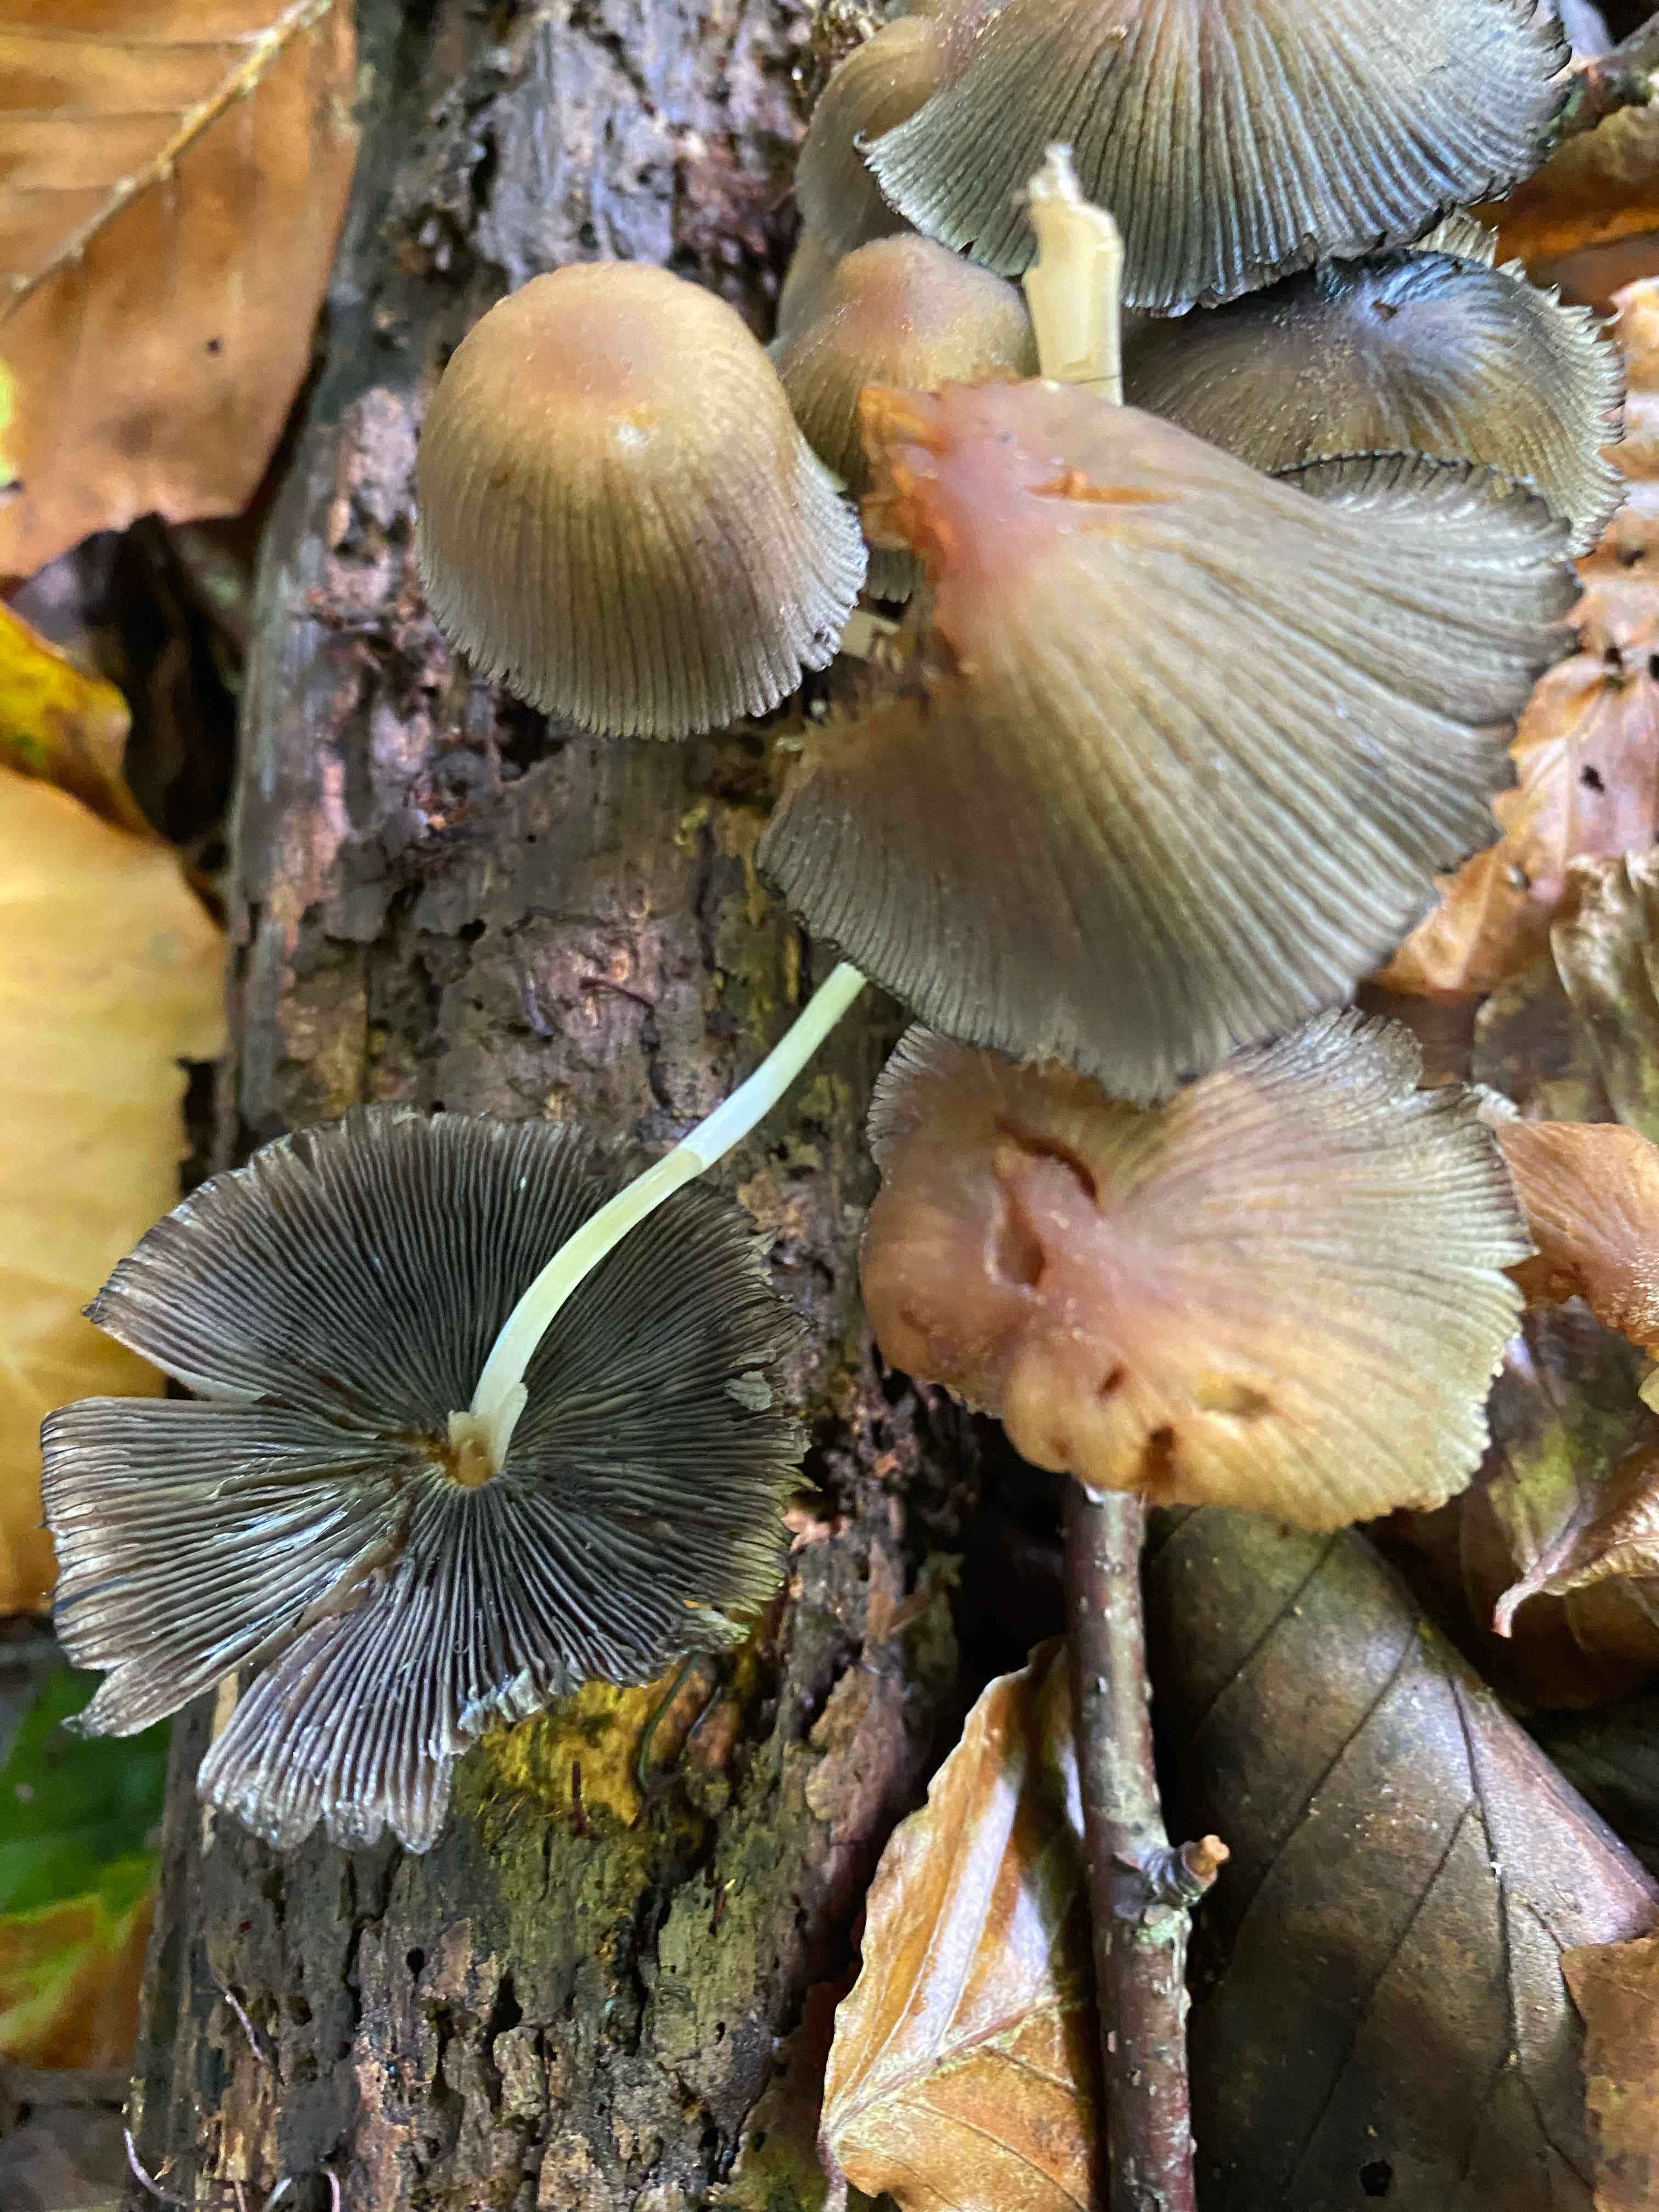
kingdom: Fungi
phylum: Basidiomycota
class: Agaricomycetes
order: Agaricales
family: Psathyrellaceae
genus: Coprinellus
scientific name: Coprinellus
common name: blækhat
